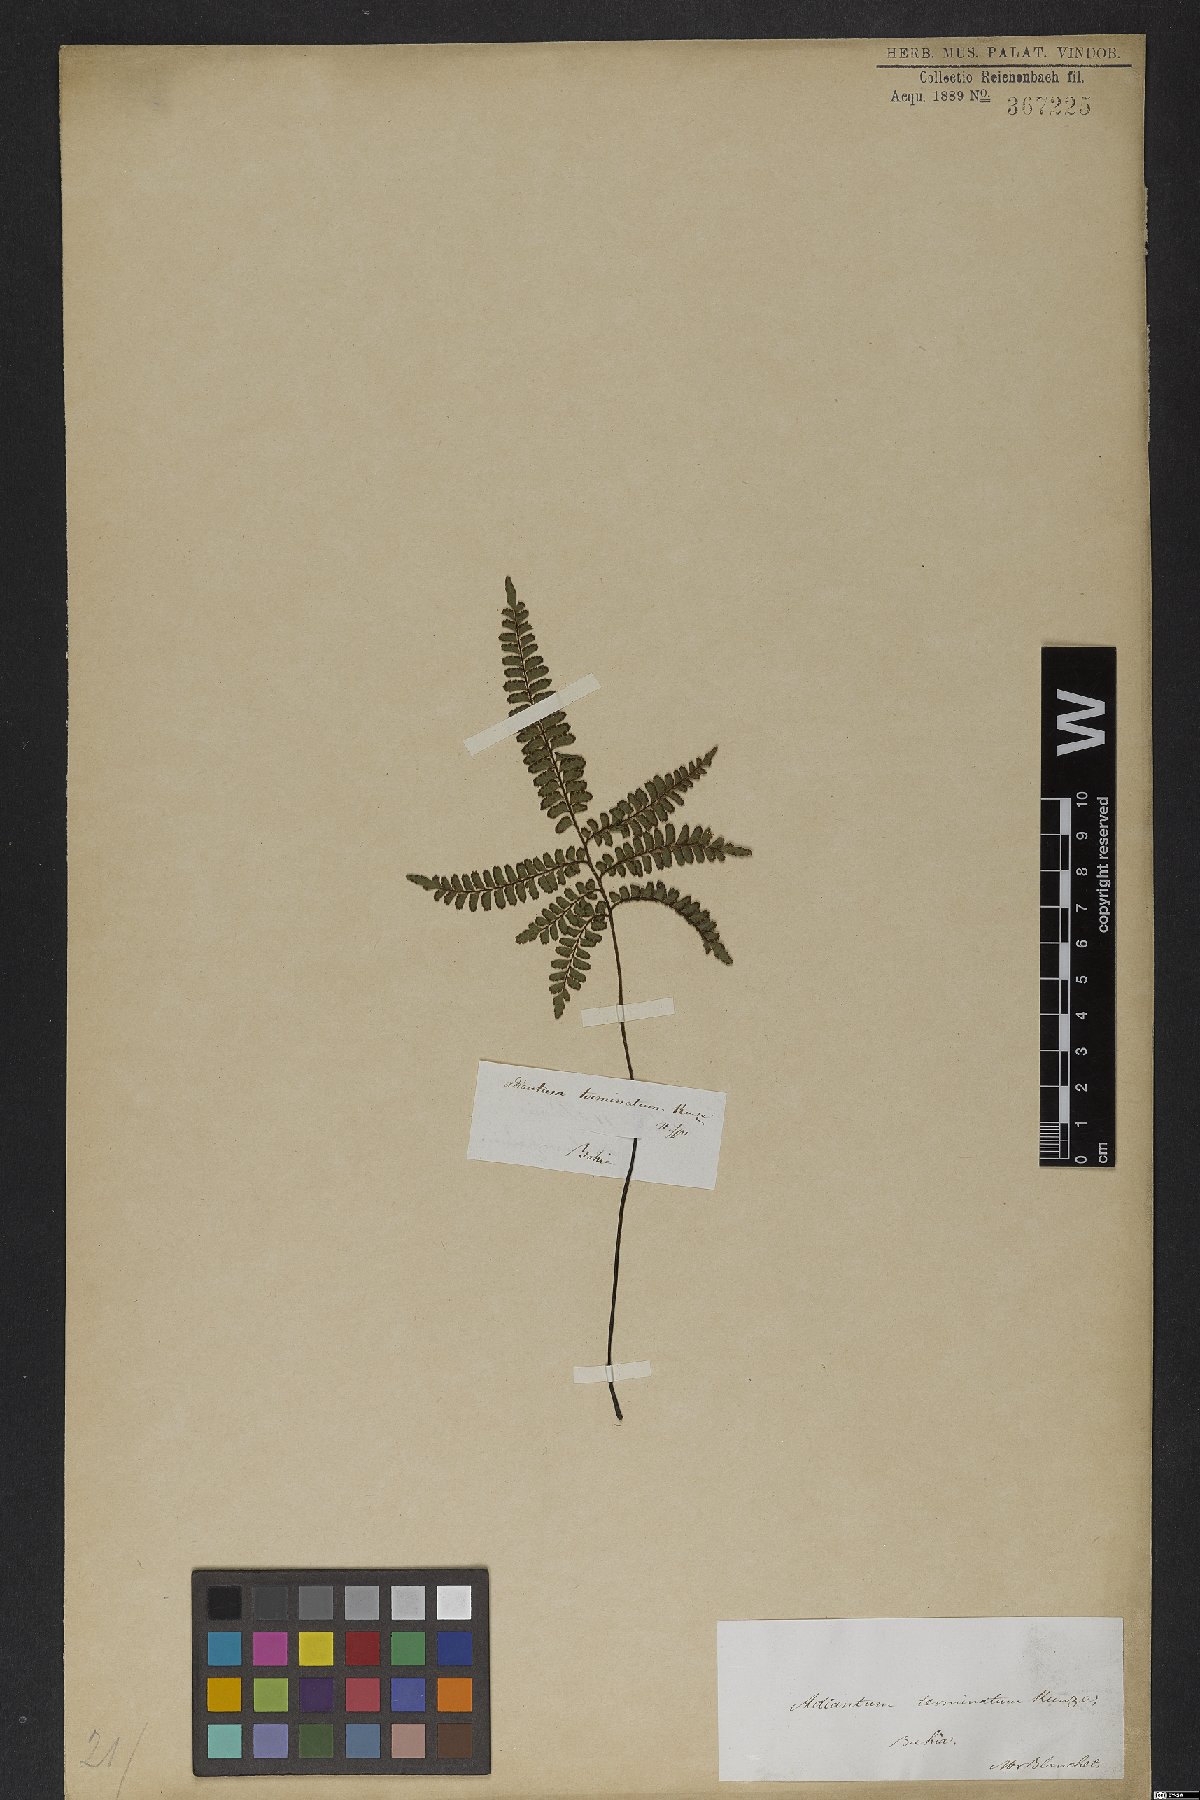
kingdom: Plantae
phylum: Tracheophyta
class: Polypodiopsida
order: Polypodiales
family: Pteridaceae
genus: Adiantum
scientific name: Adiantum terminatum
